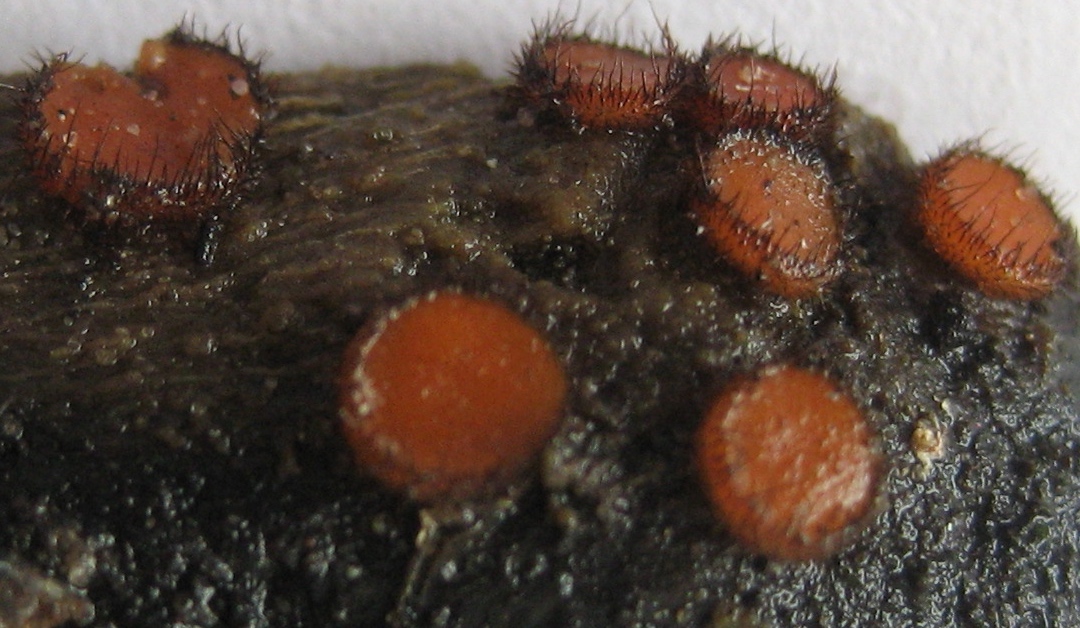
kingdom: Fungi
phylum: Ascomycota
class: Pezizomycetes
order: Pezizales
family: Pyronemataceae
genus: Scutellinia
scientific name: Scutellinia scutellata
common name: frynset skjoldbæger
